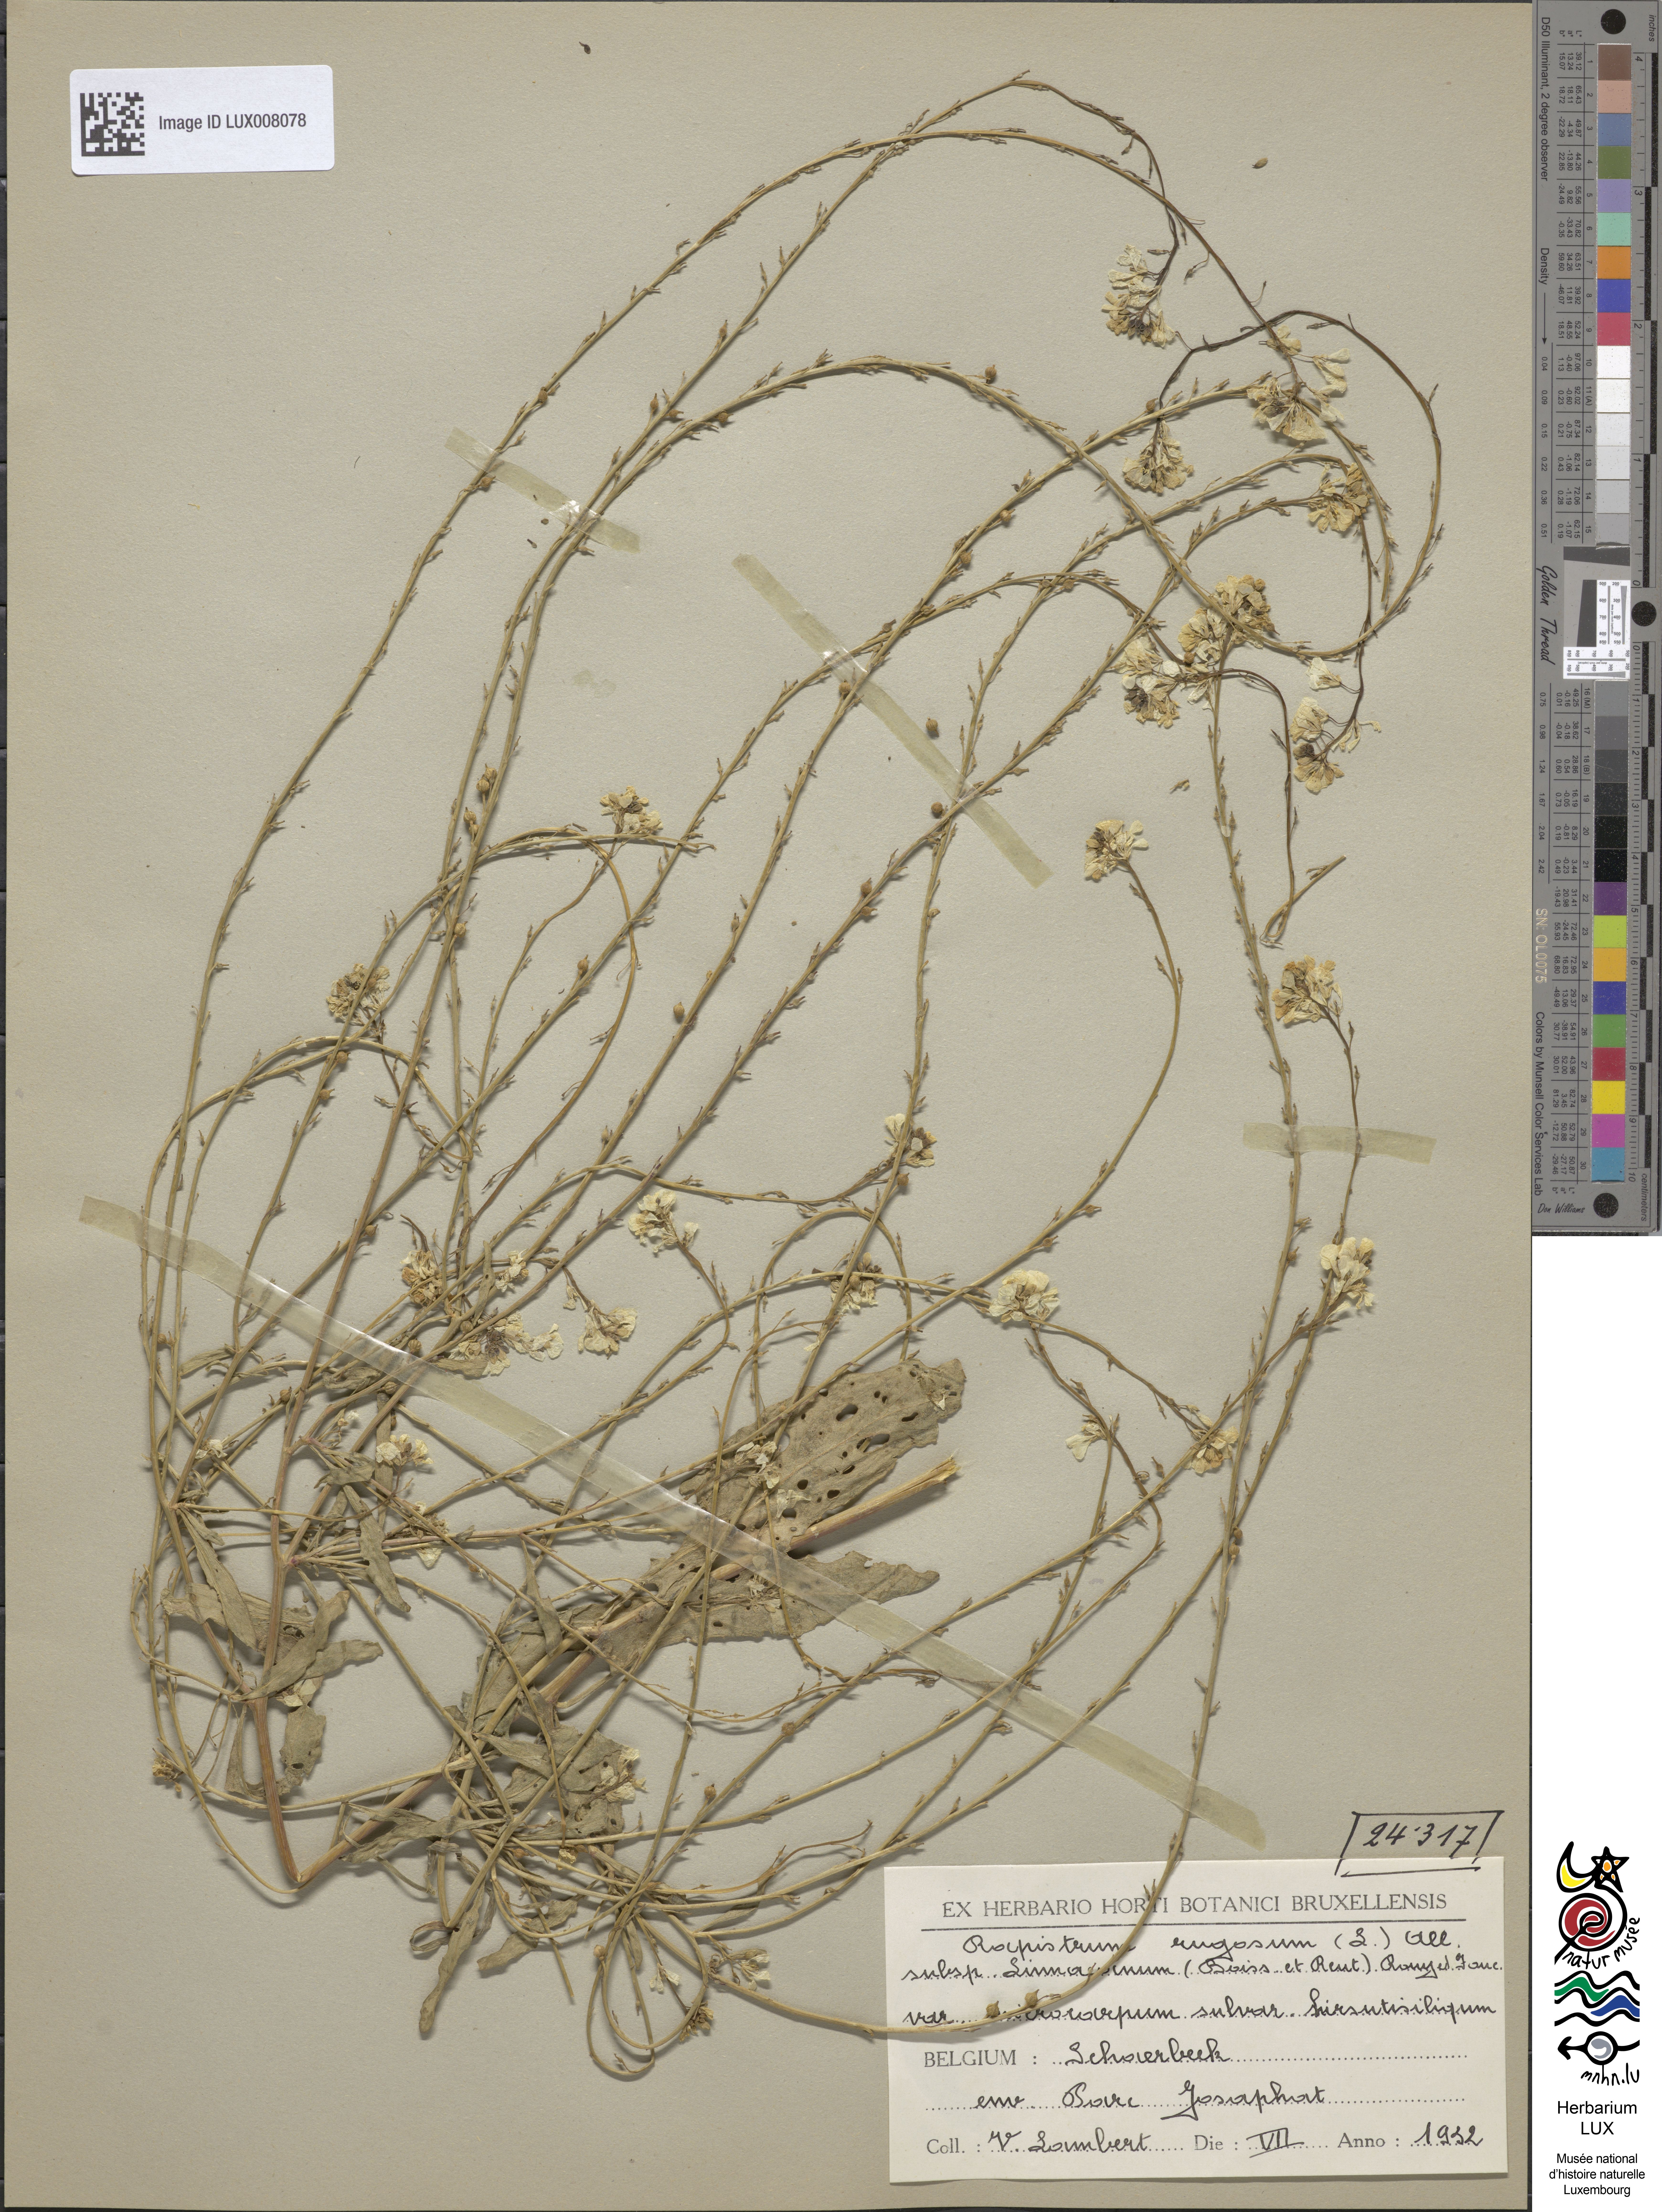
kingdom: Plantae
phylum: Tracheophyta
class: Magnoliopsida
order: Brassicales
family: Brassicaceae
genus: Rapistrum
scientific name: Rapistrum rugosum
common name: Annual bastardcabbage
